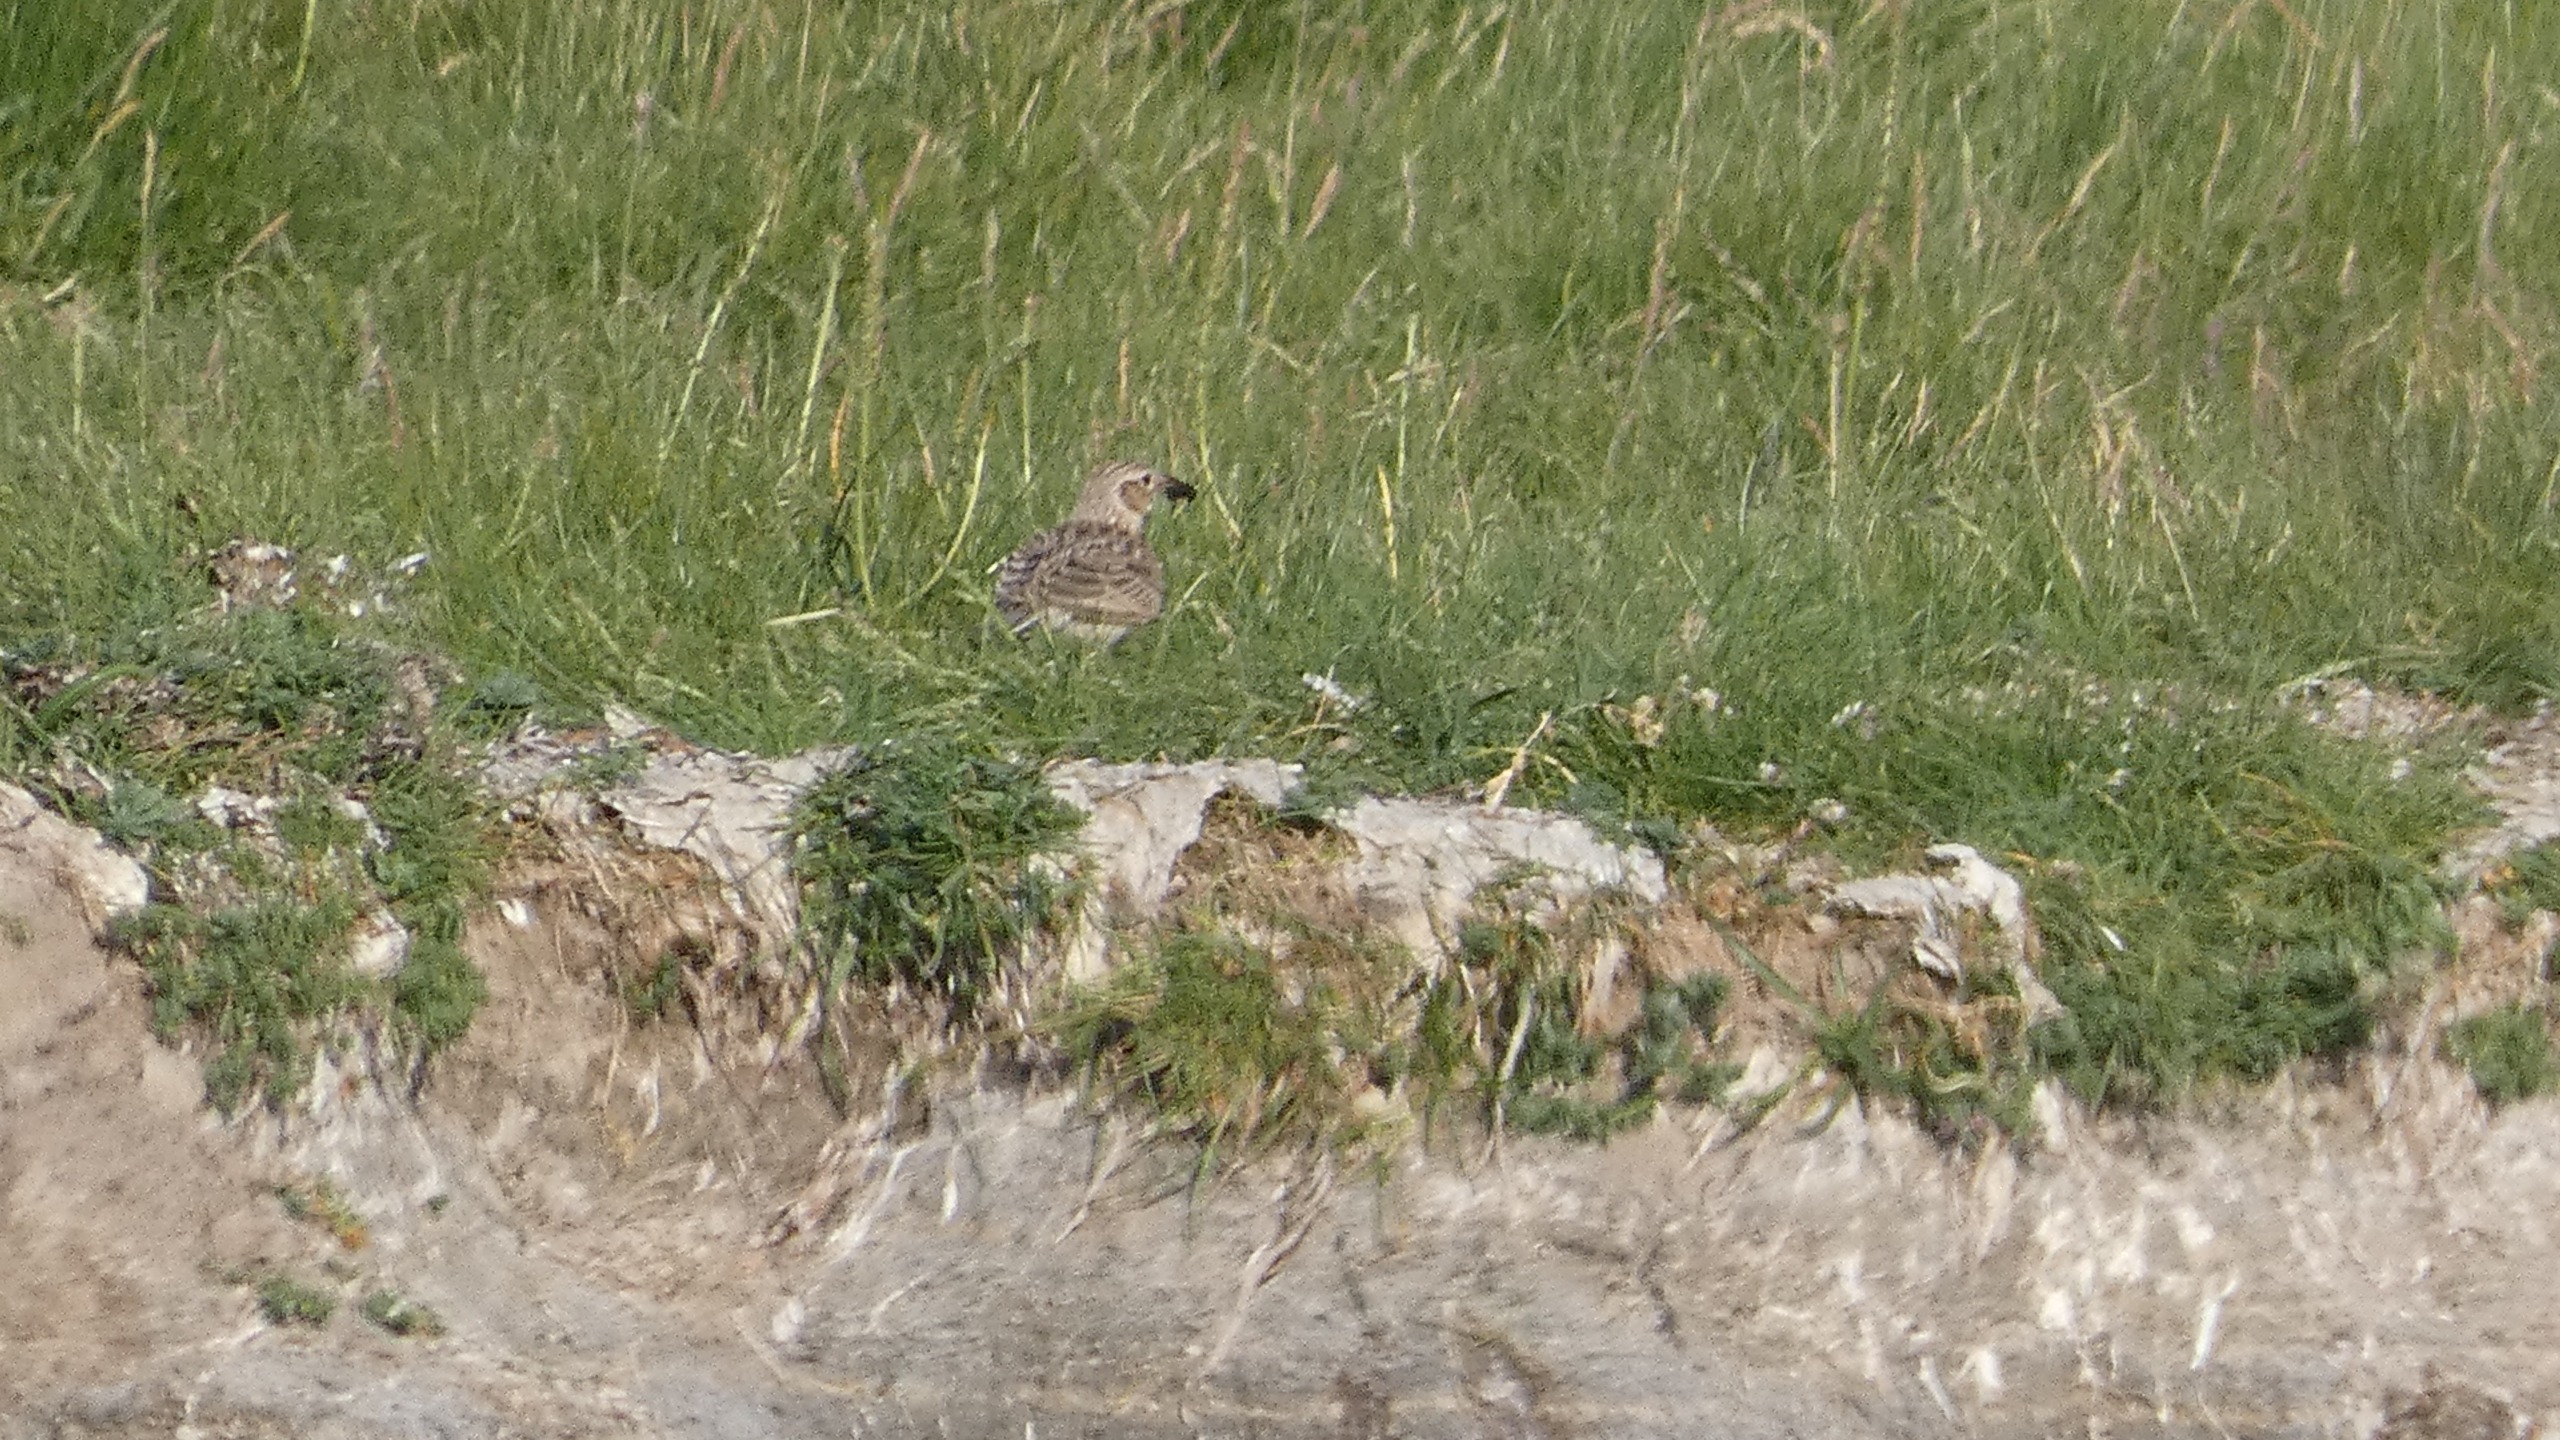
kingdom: Animalia
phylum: Chordata
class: Aves
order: Passeriformes
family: Alaudidae
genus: Alauda
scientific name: Alauda arvensis
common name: Sanglærke
